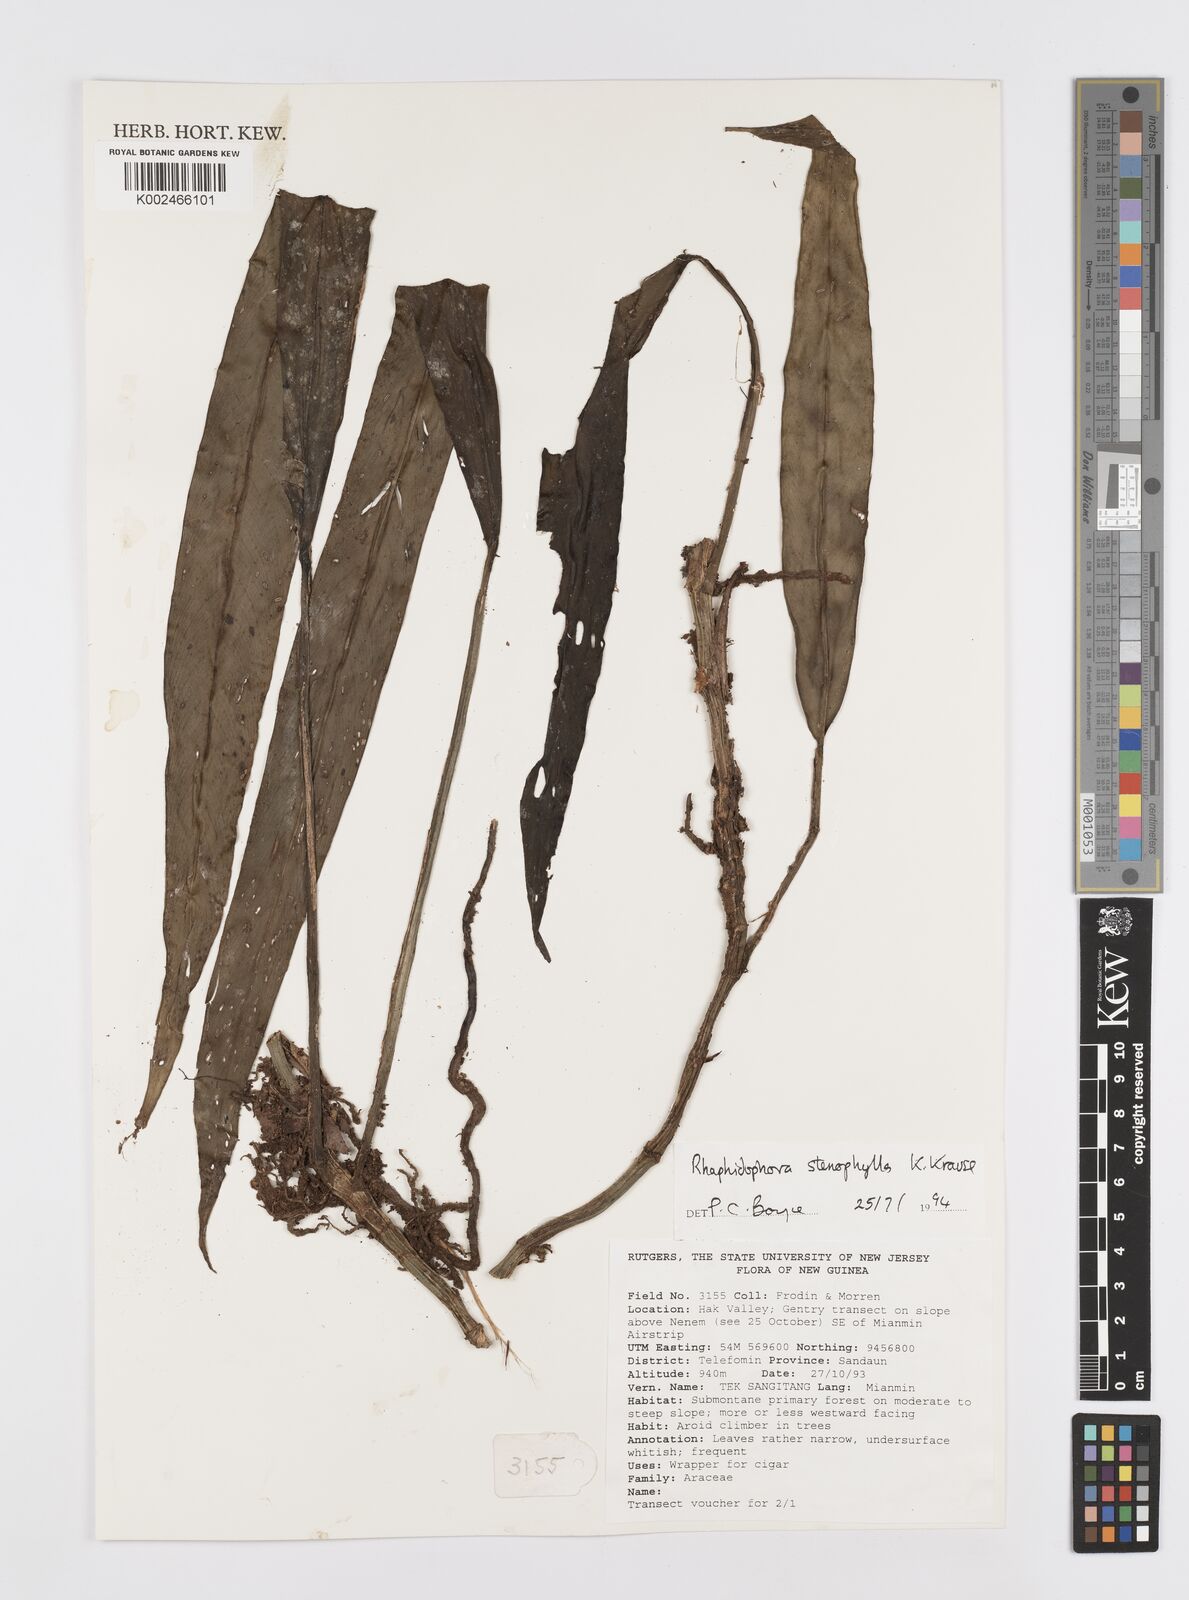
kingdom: Plantae
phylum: Tracheophyta
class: Liliopsida
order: Alismatales
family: Araceae
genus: Rhaphidophora
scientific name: Rhaphidophora stenophylla
